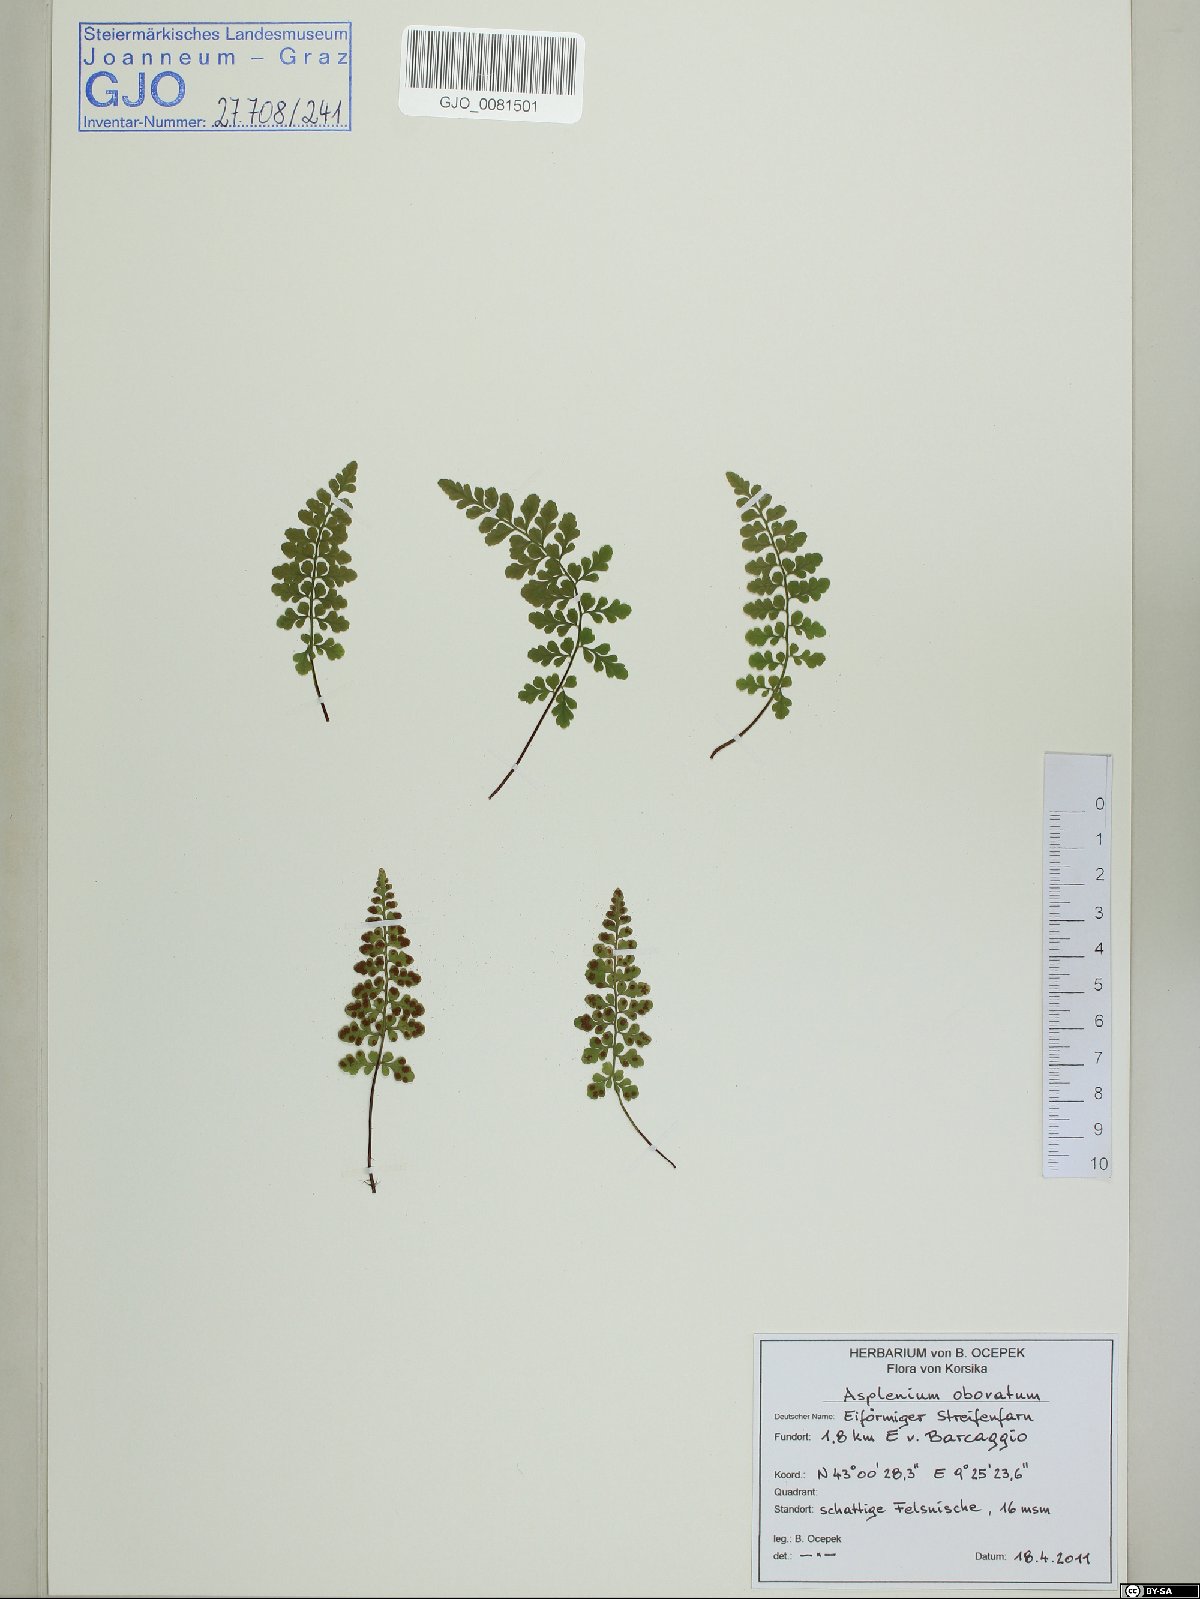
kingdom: Plantae
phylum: Tracheophyta
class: Polypodiopsida
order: Polypodiales
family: Aspleniaceae
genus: Asplenium
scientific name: Asplenium obovatum
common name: Lanceolate spleenwort
